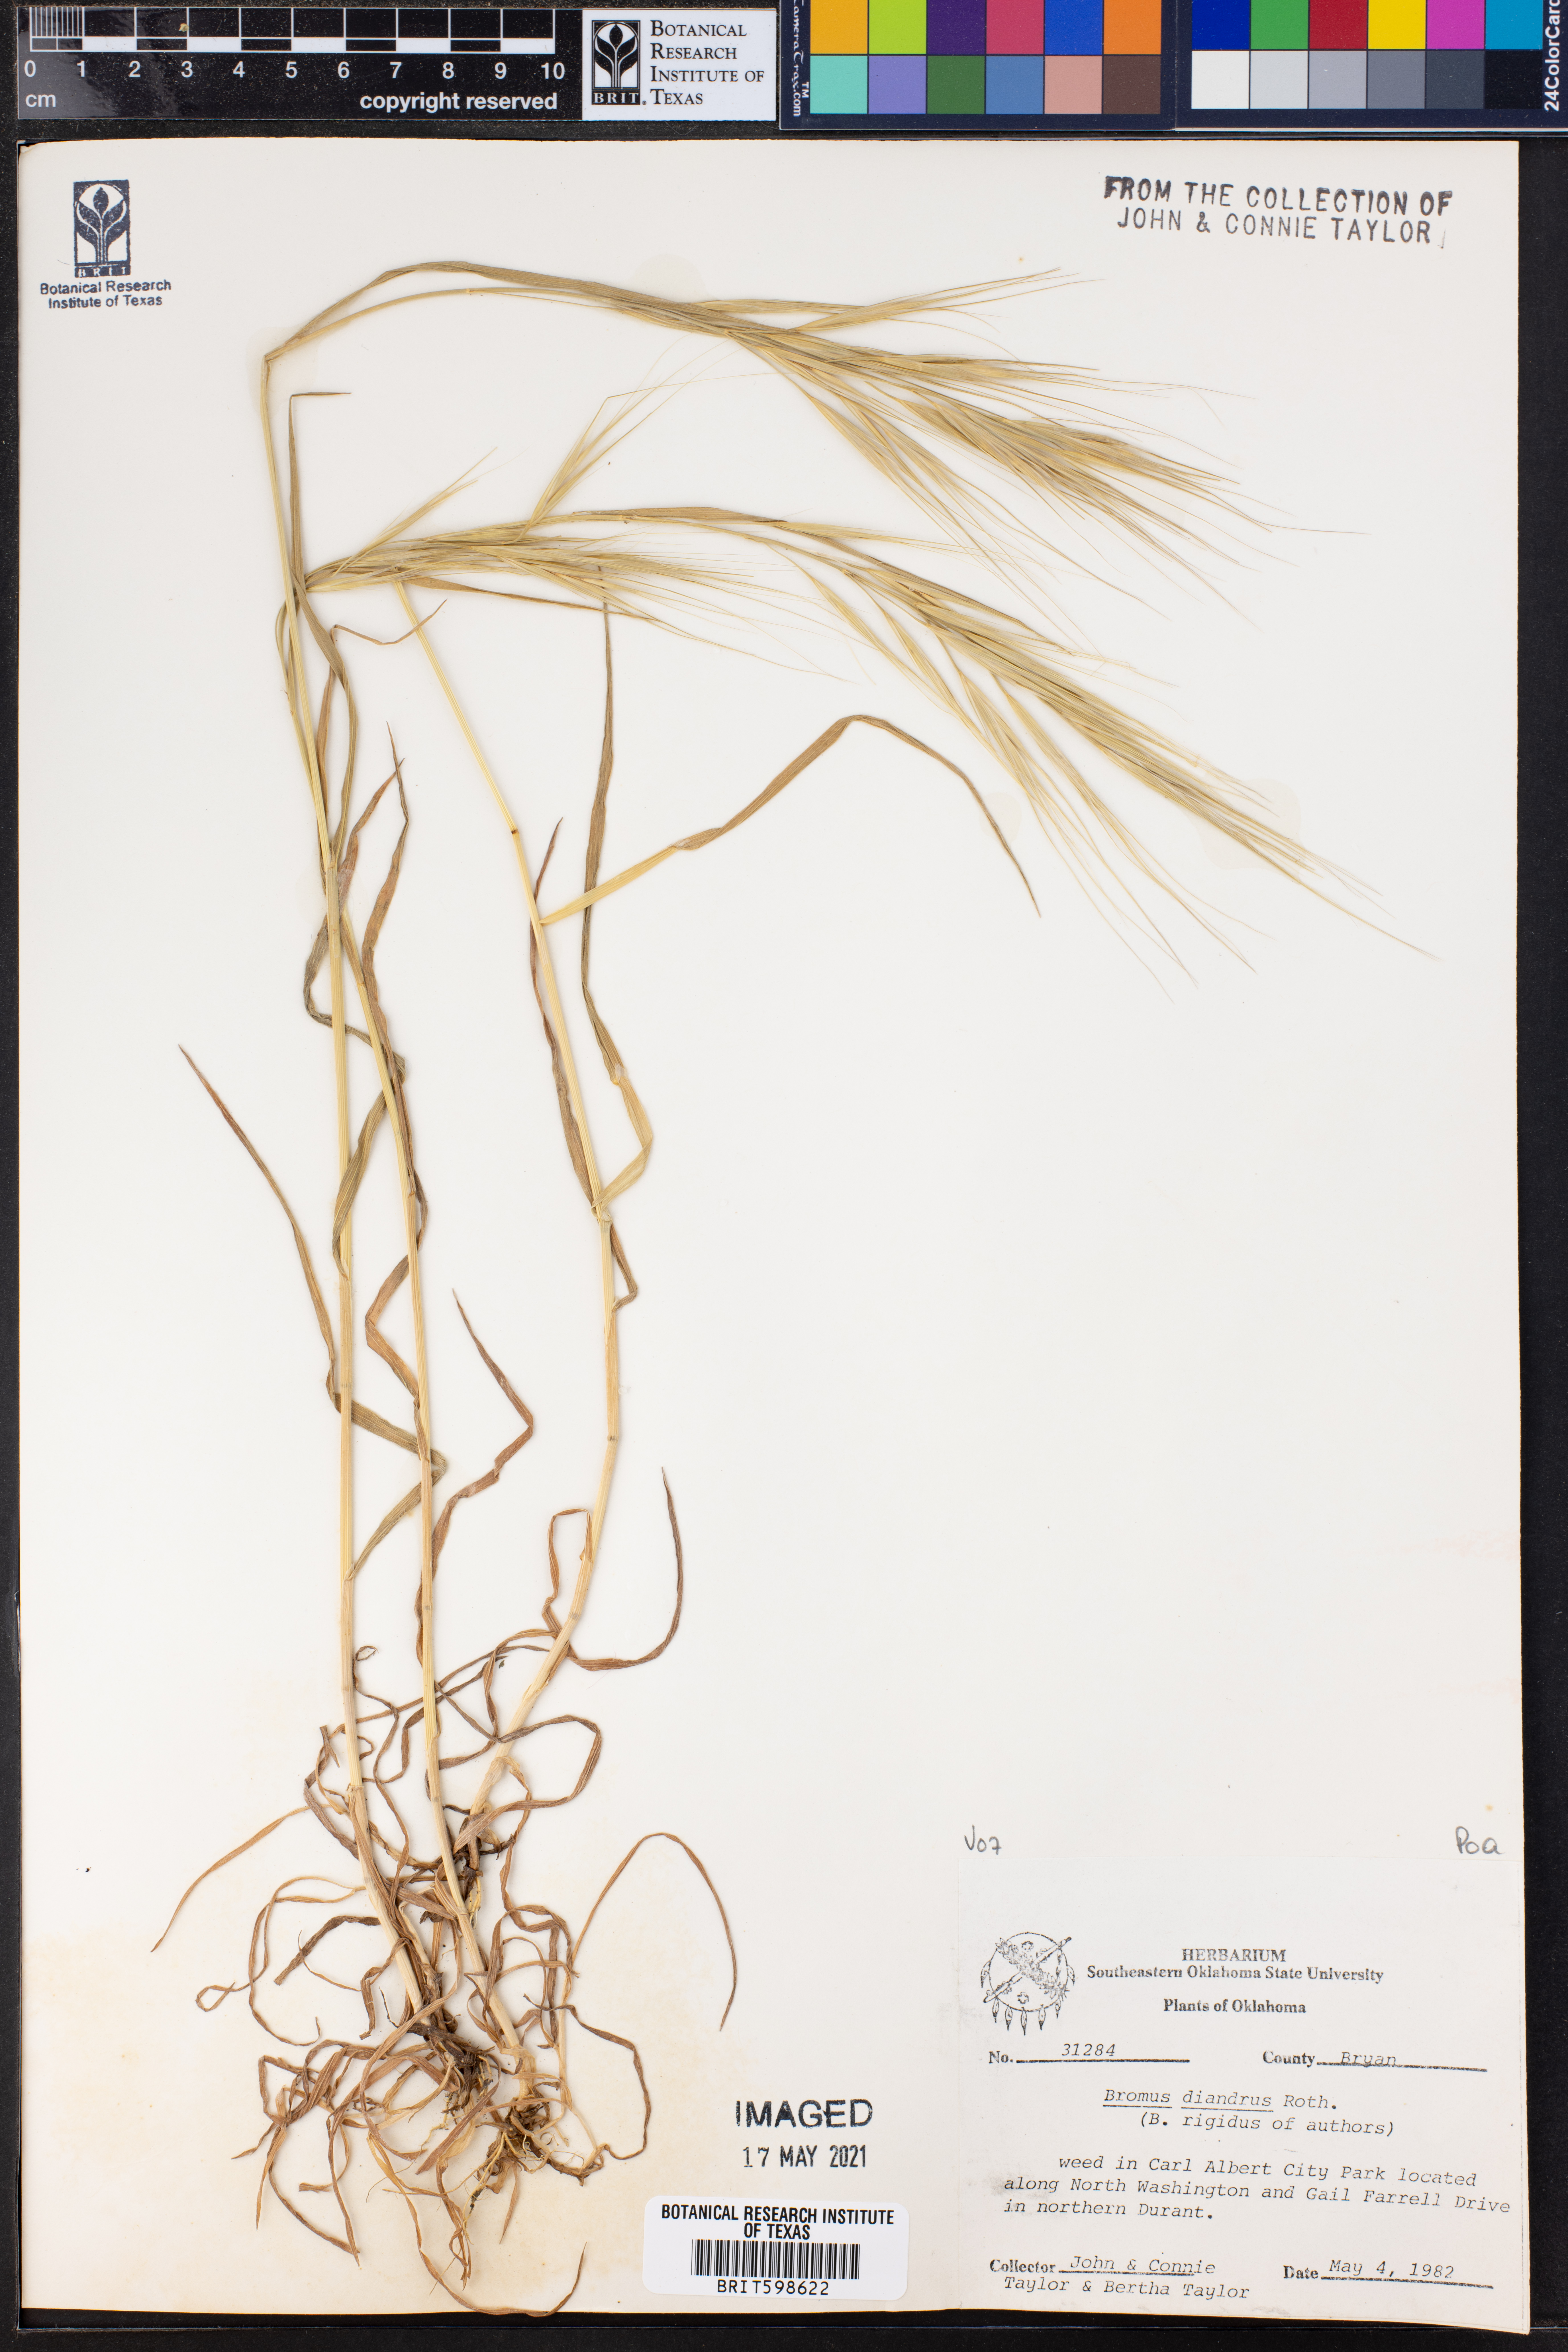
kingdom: Plantae
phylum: Tracheophyta
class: Liliopsida
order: Poales
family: Poaceae
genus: Bromus
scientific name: Bromus diandrus
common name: Ripgut brome
